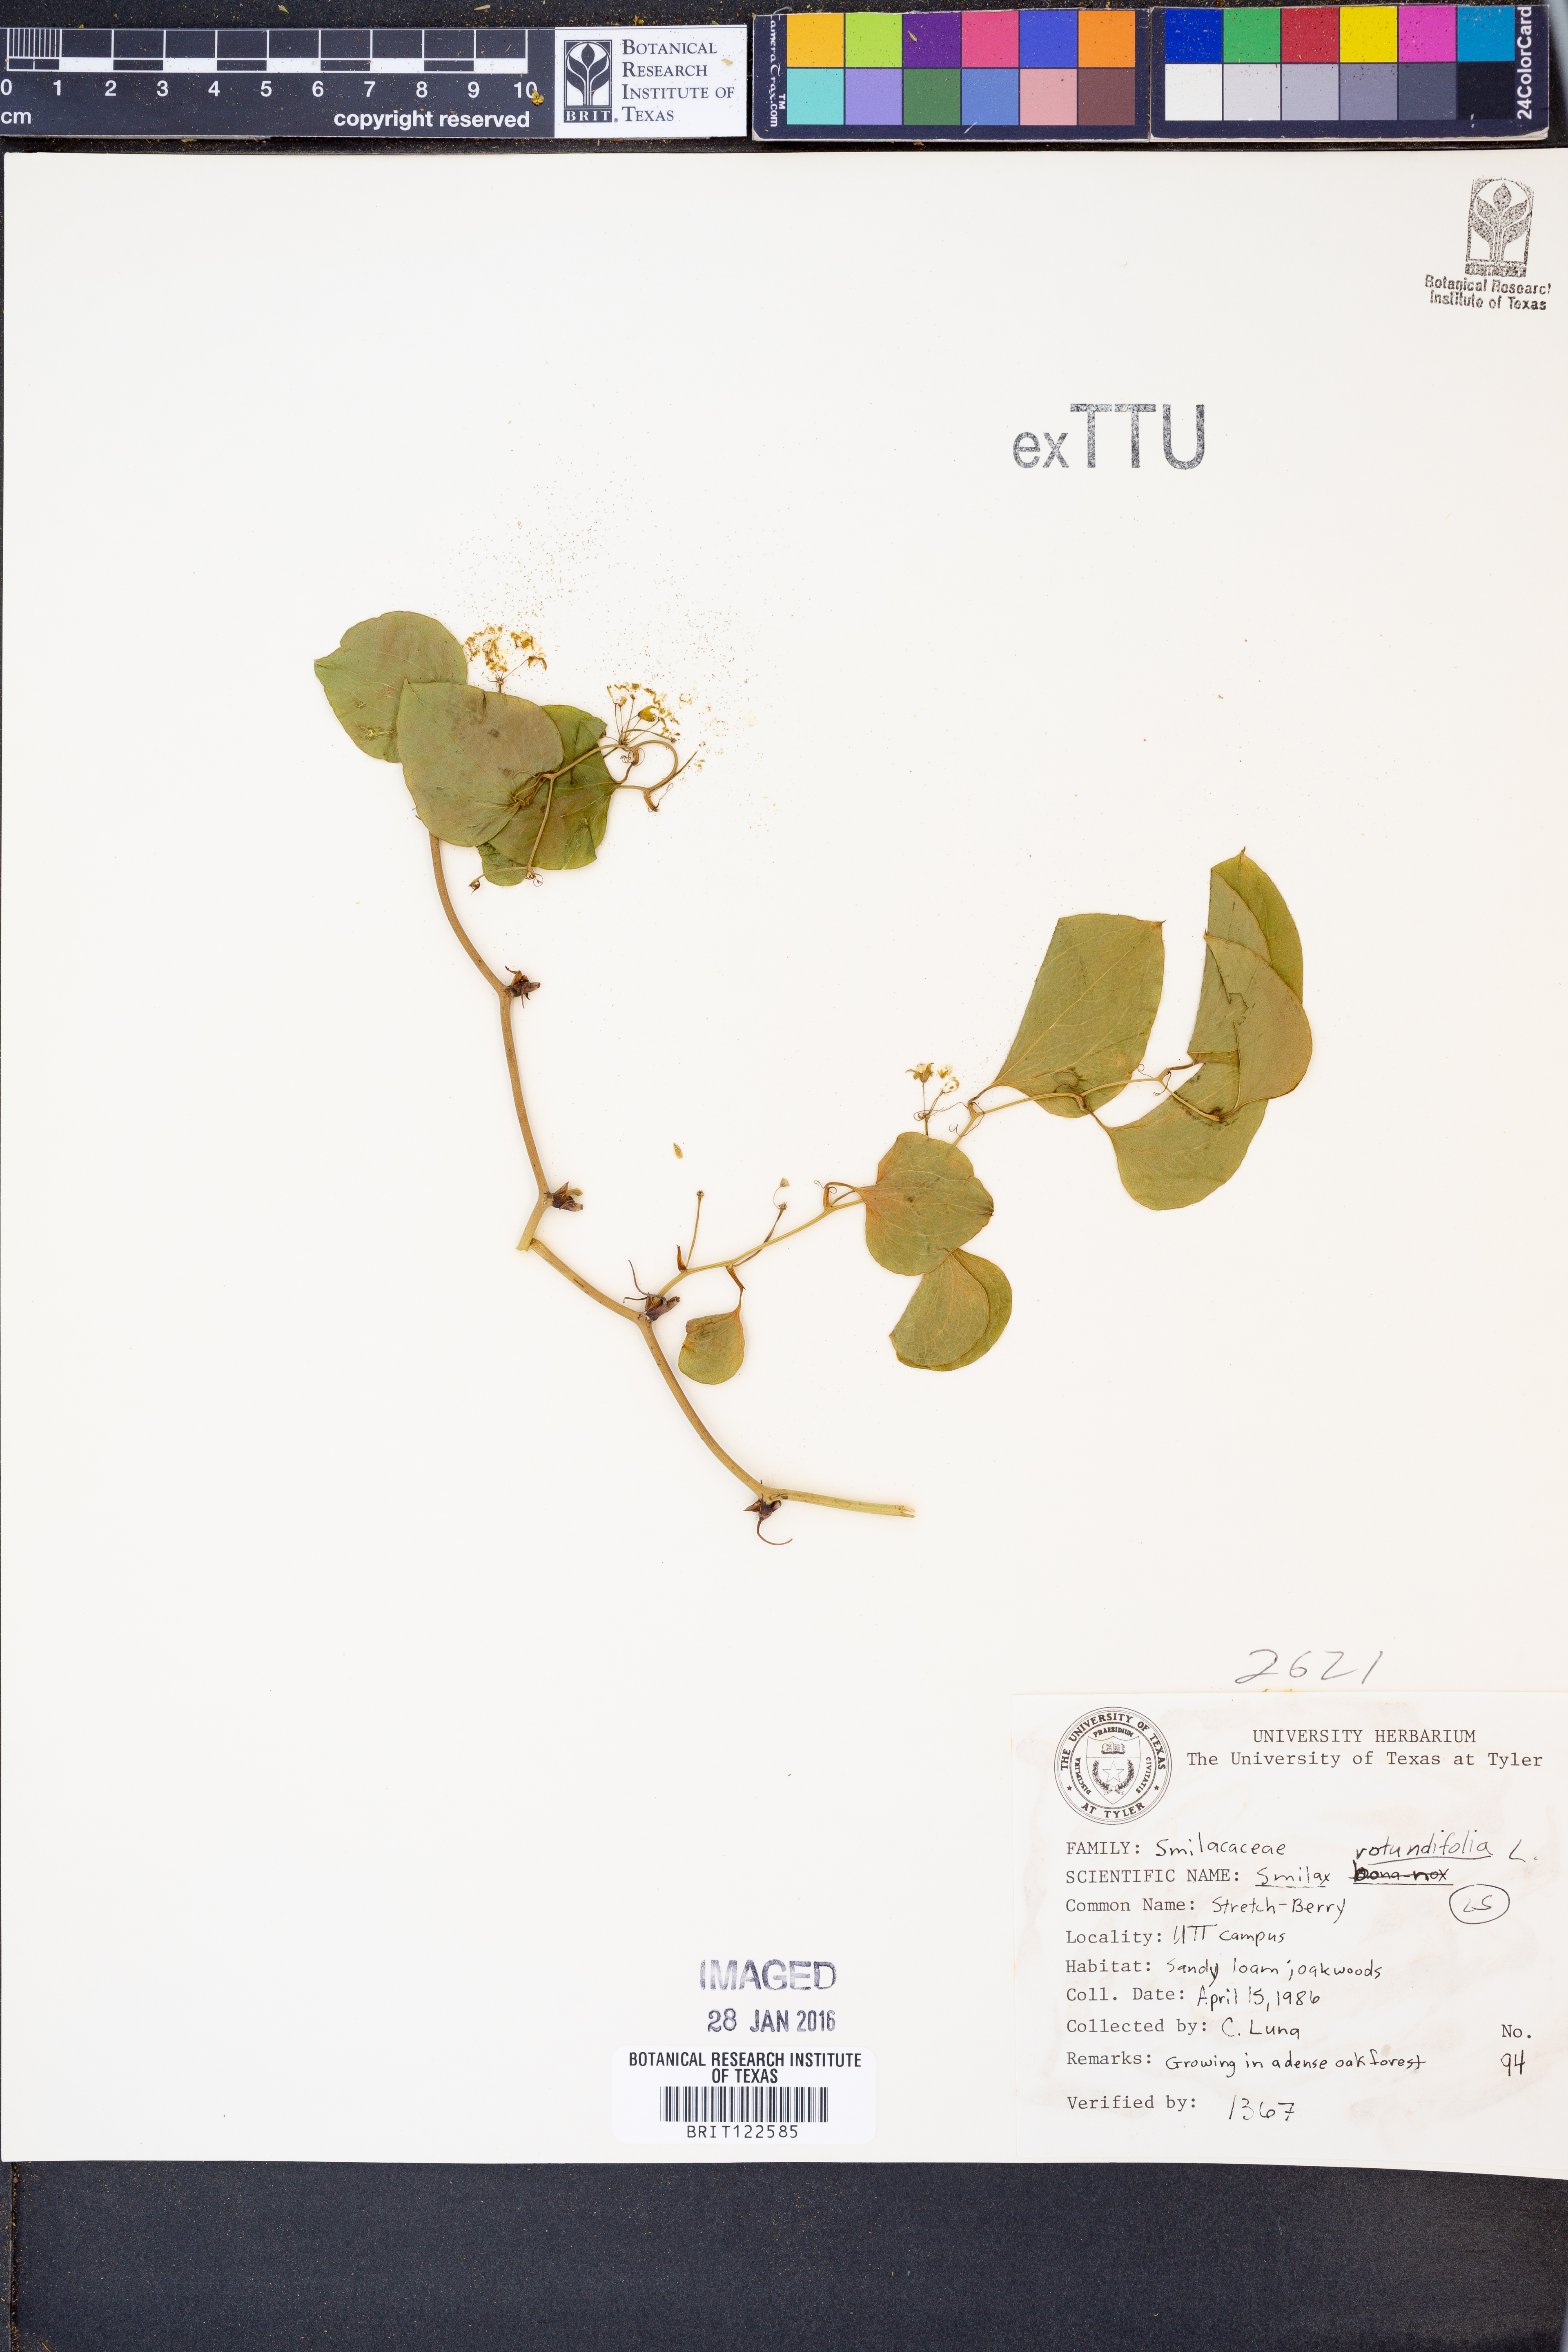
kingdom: Plantae
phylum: Tracheophyta
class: Liliopsida
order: Liliales
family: Smilacaceae
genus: Smilax
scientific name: Smilax rotundifolia
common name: Bullbriar
